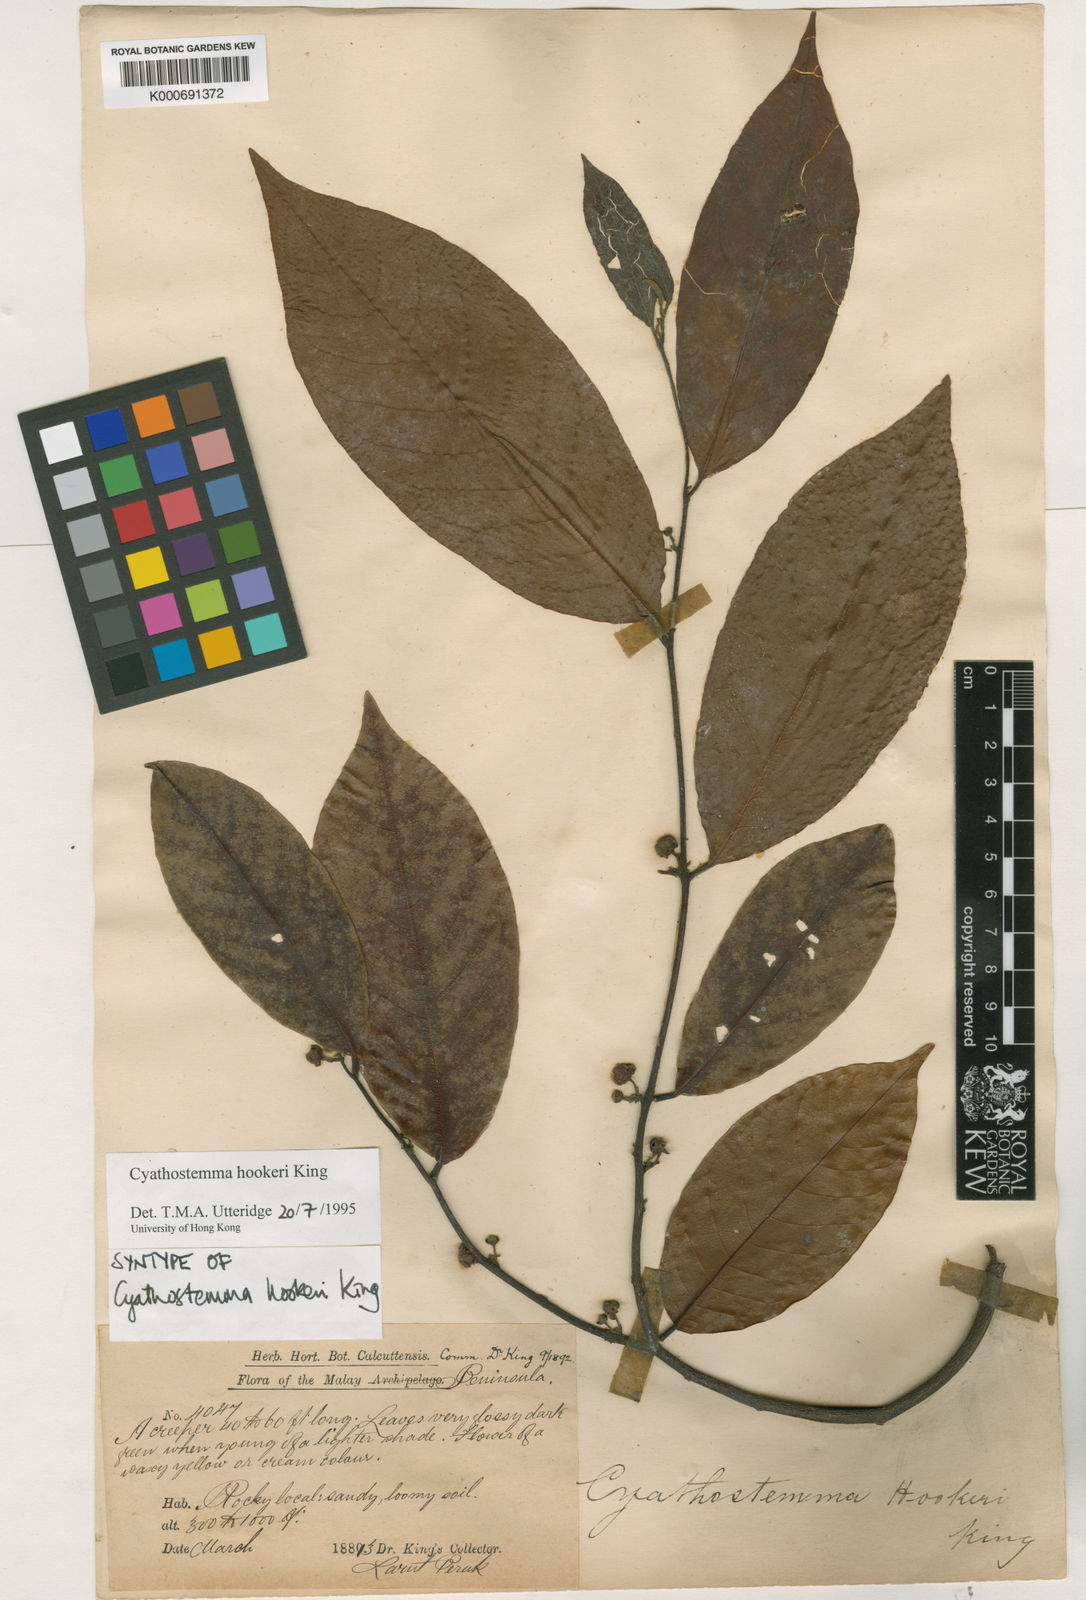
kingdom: Plantae
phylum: Tracheophyta
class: Magnoliopsida
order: Magnoliales
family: Annonaceae
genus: Uvaria
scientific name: Uvaria clementis
